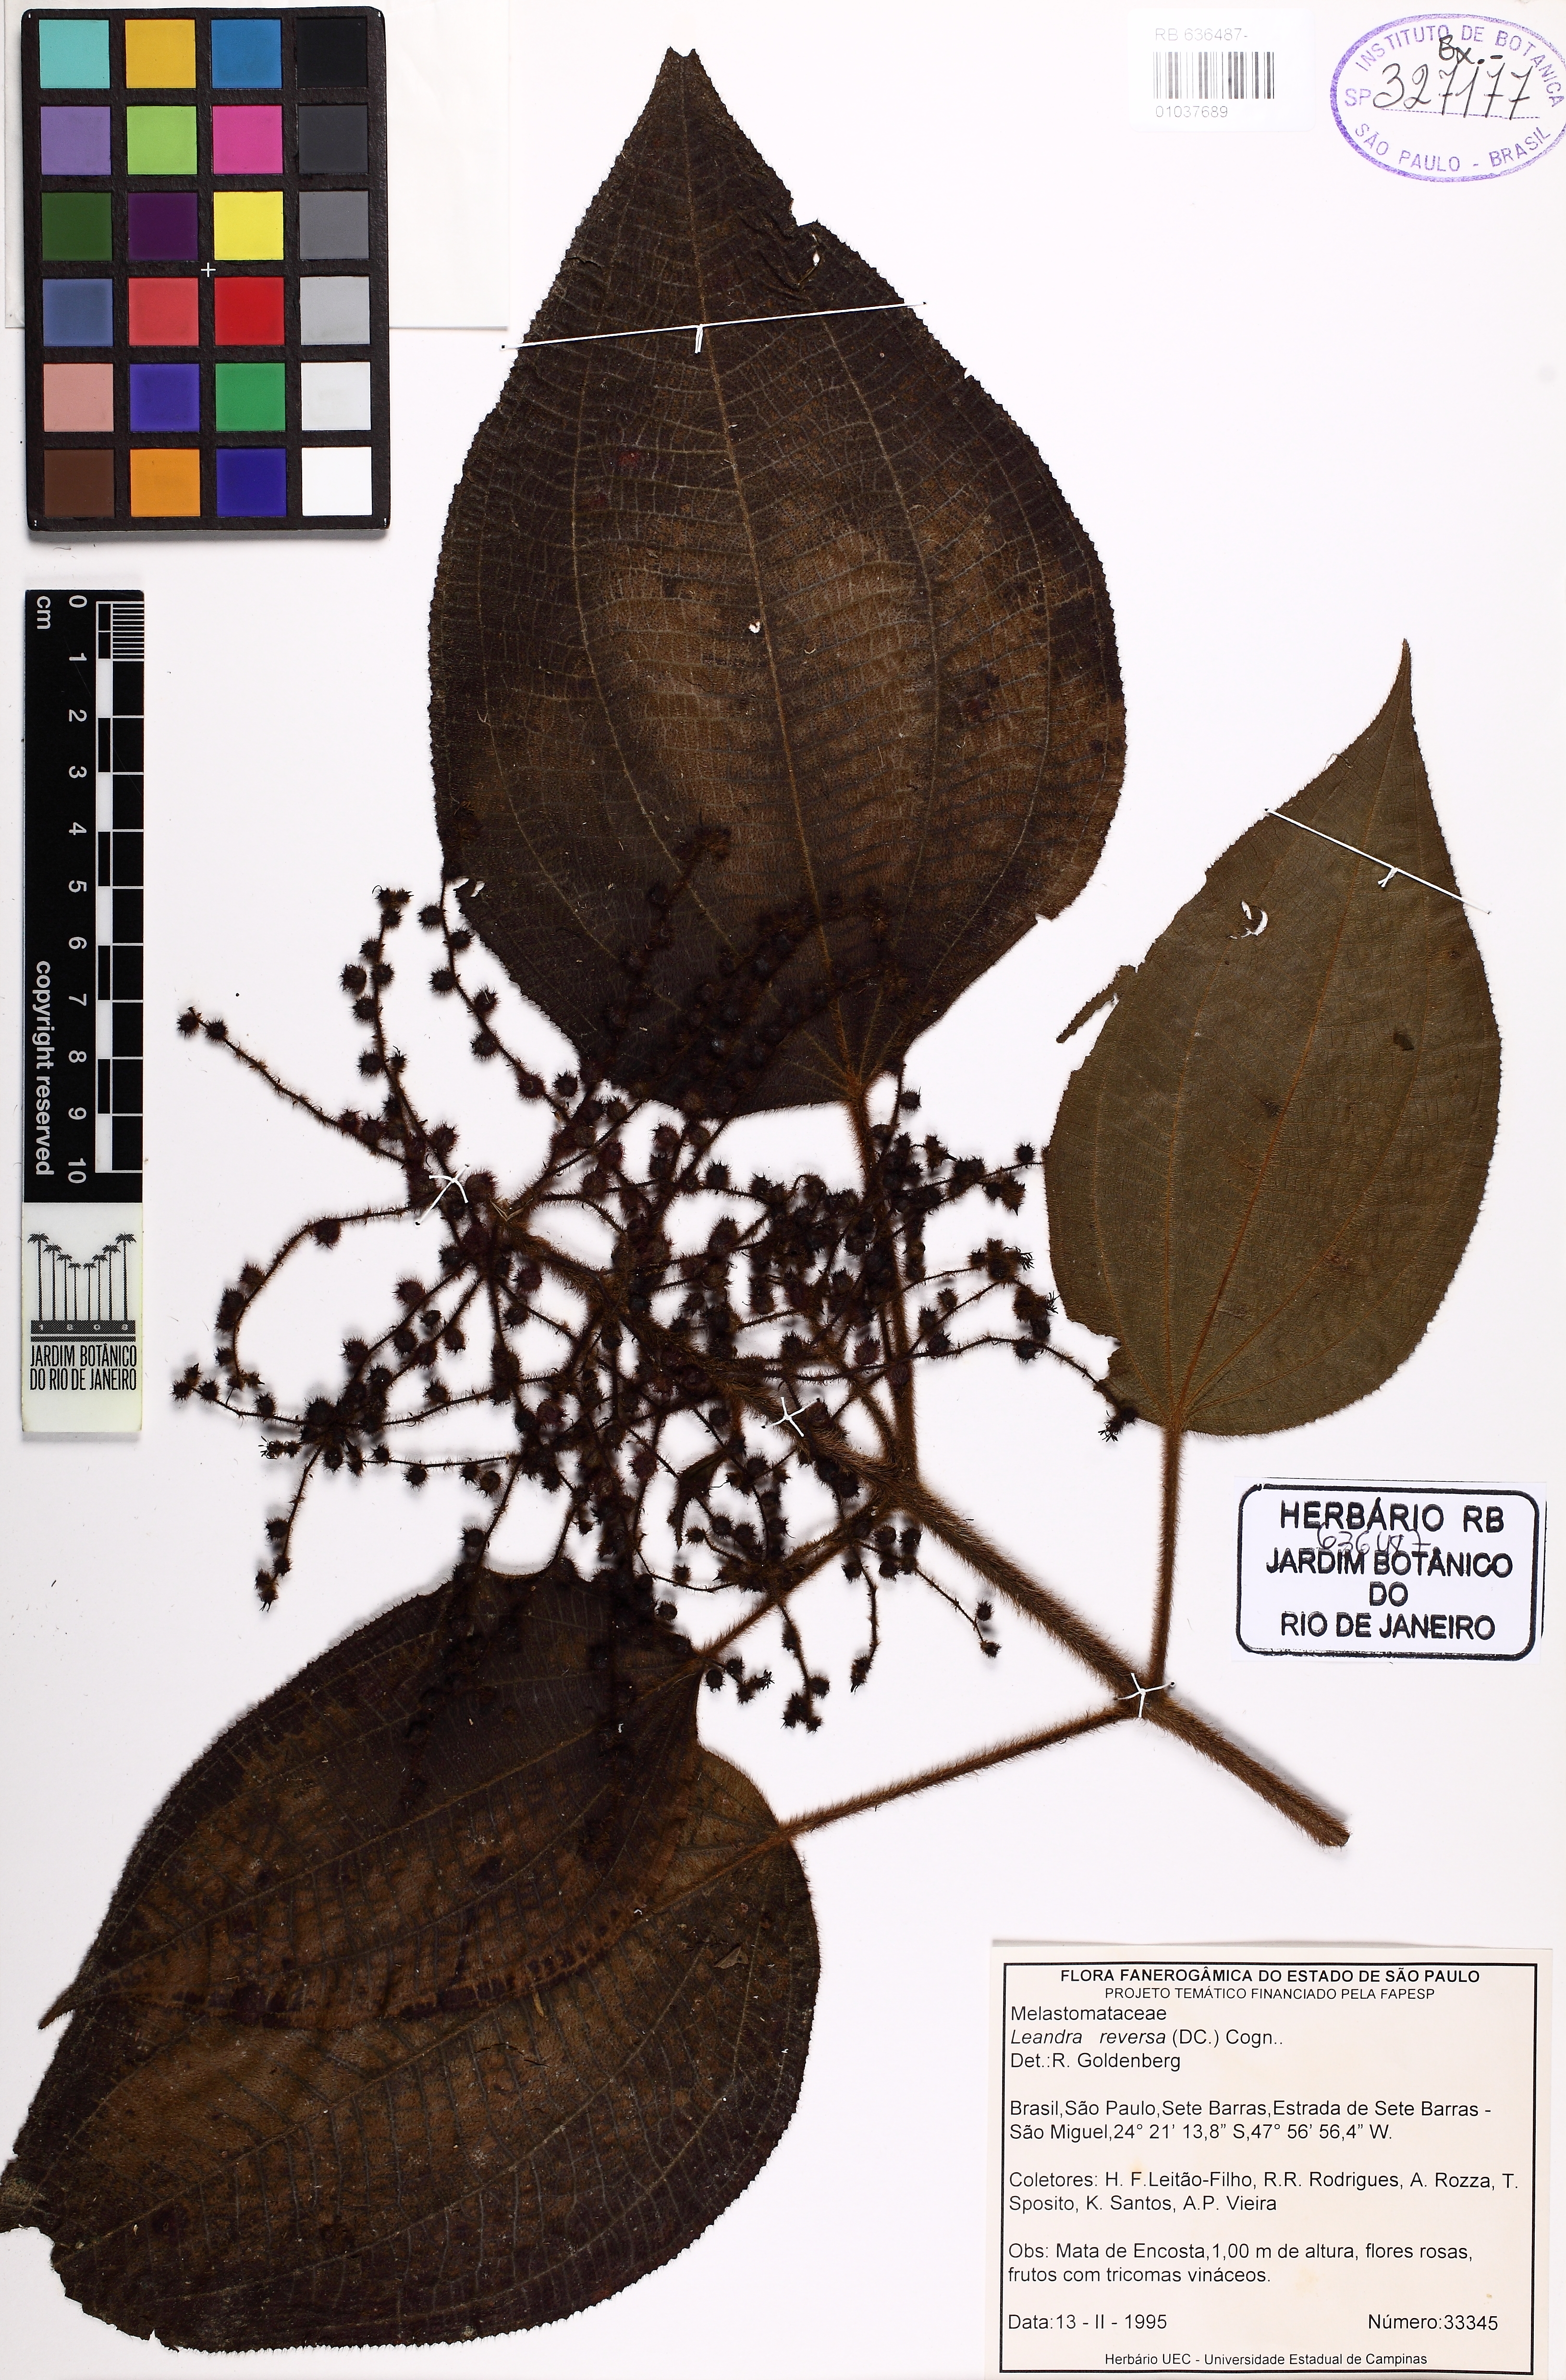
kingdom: Plantae
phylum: Tracheophyta
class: Magnoliopsida
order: Myrtales
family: Melastomataceae
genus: Miconia
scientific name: Miconia reversa
